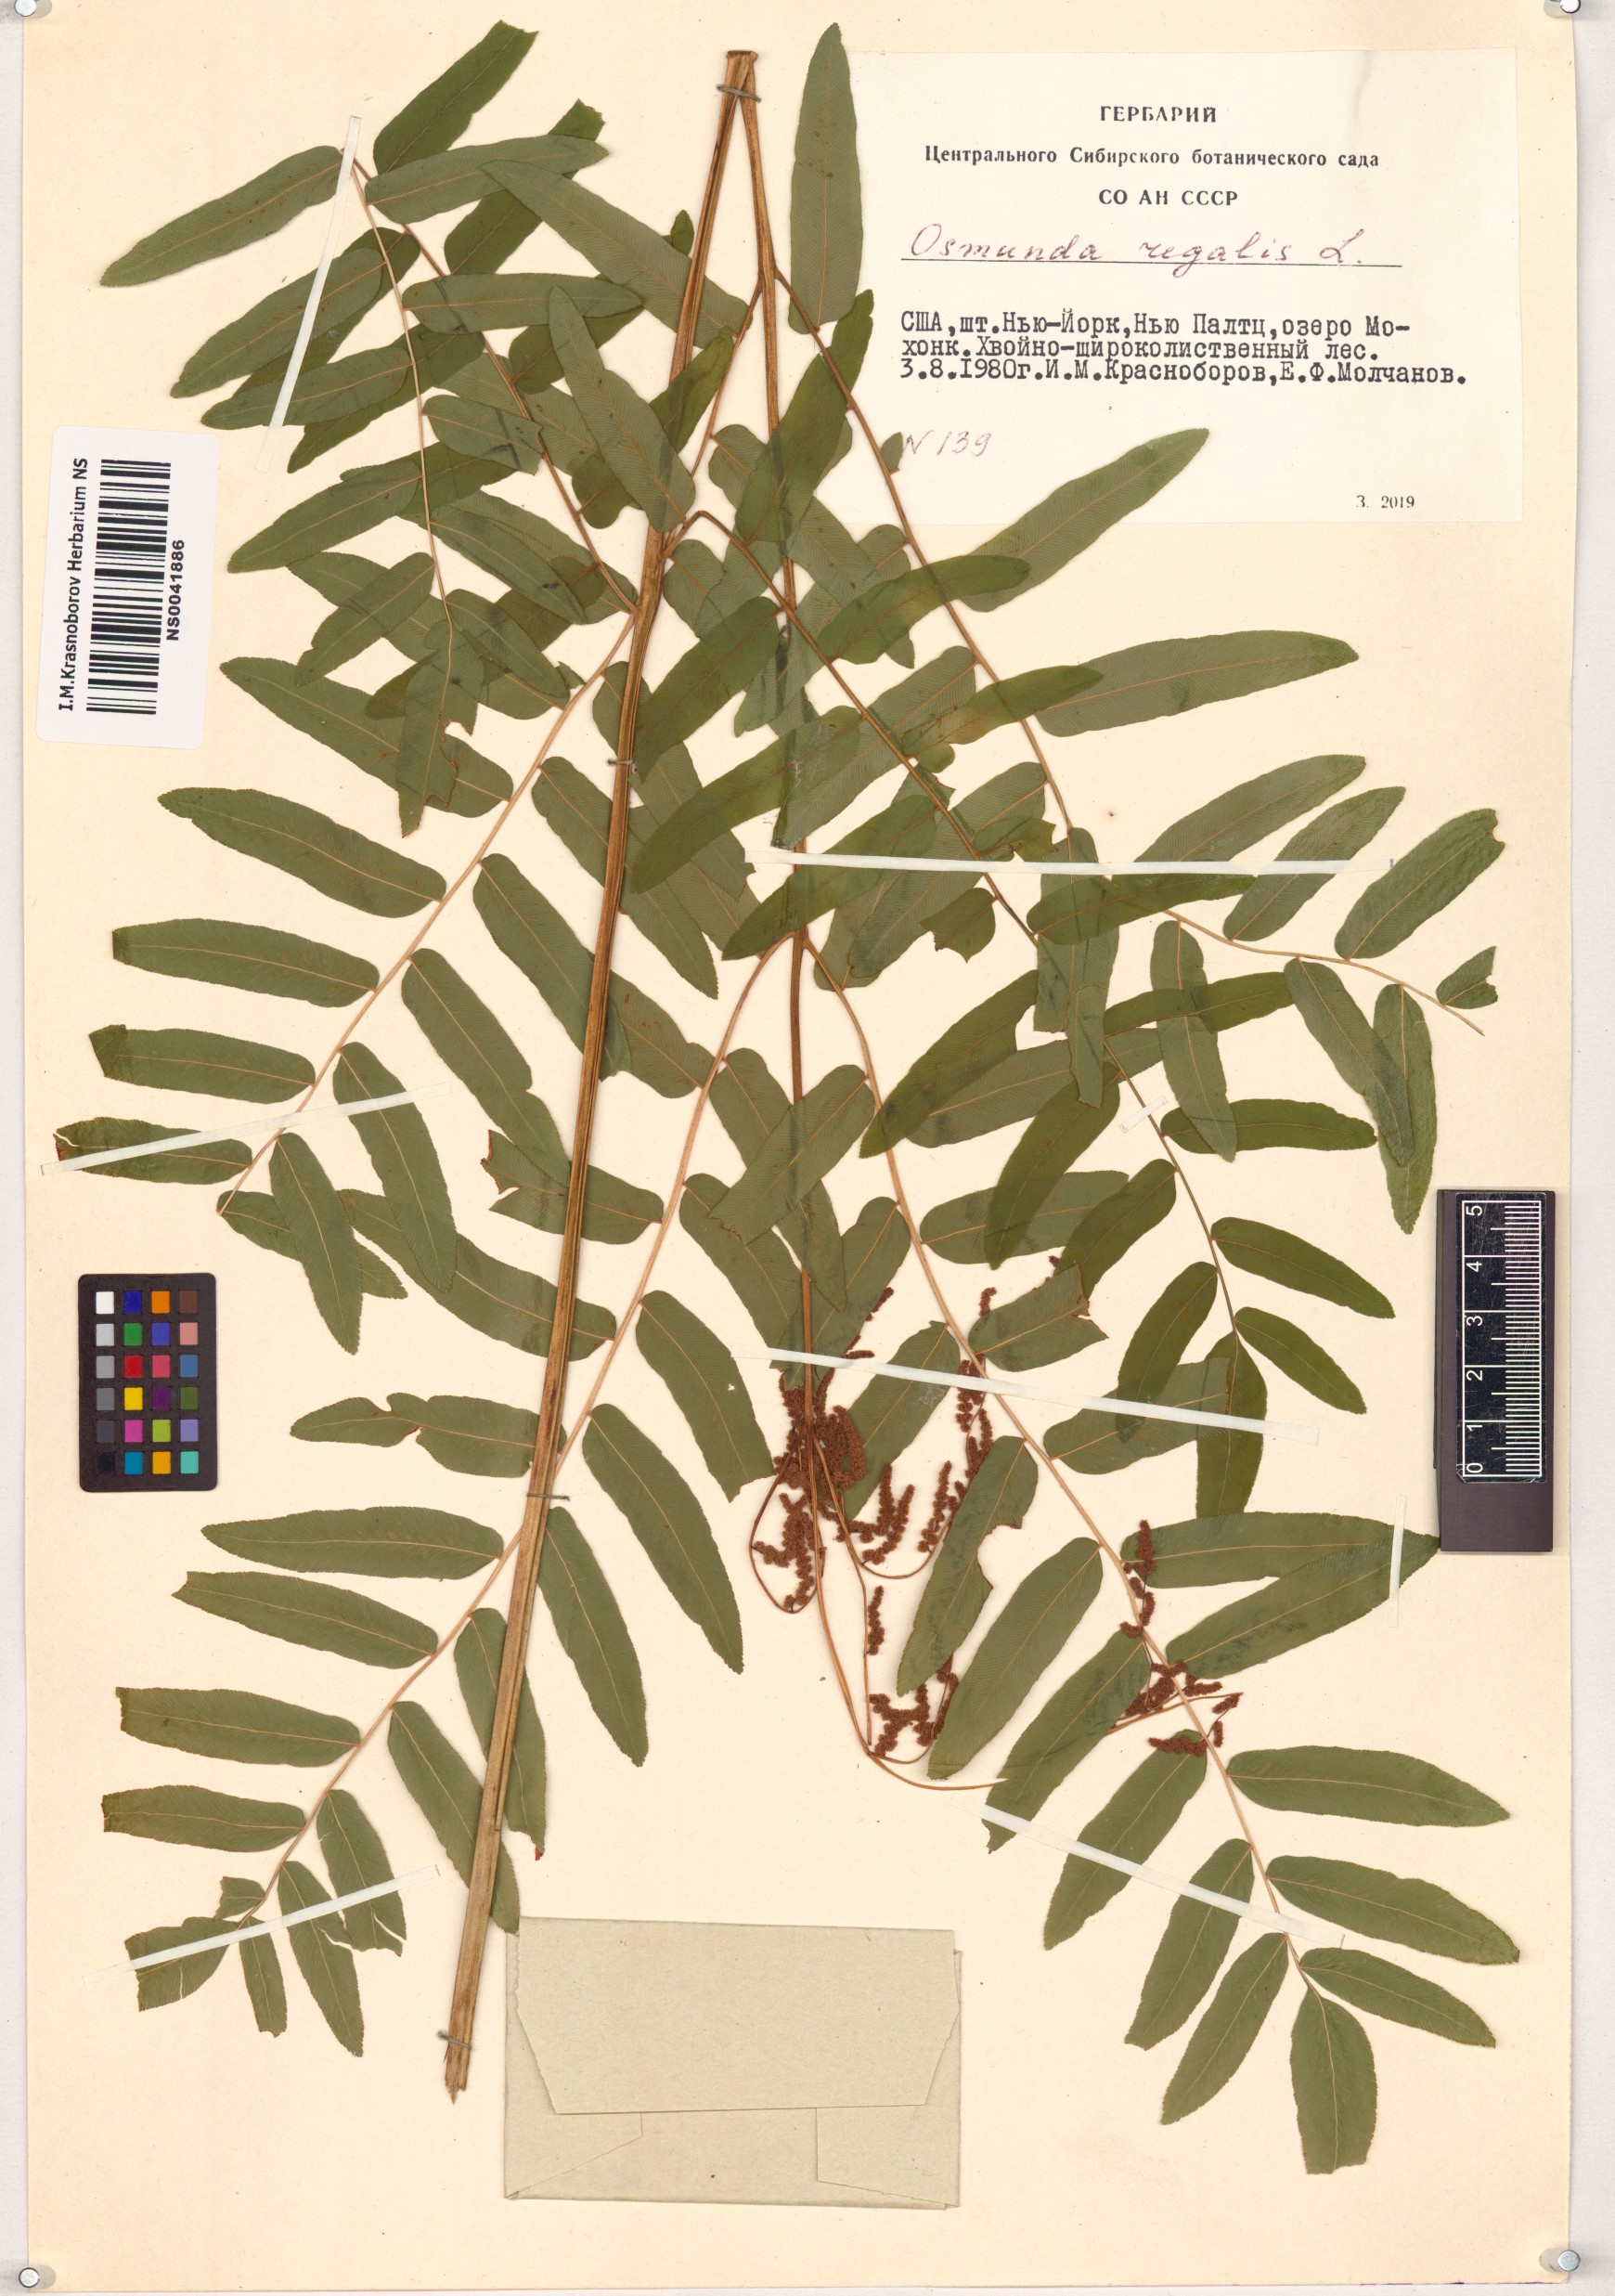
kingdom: Plantae
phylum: Tracheophyta
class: Polypodiopsida
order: Osmundales
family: Osmundaceae
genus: Osmunda
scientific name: Osmunda regalis
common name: Royal fern
